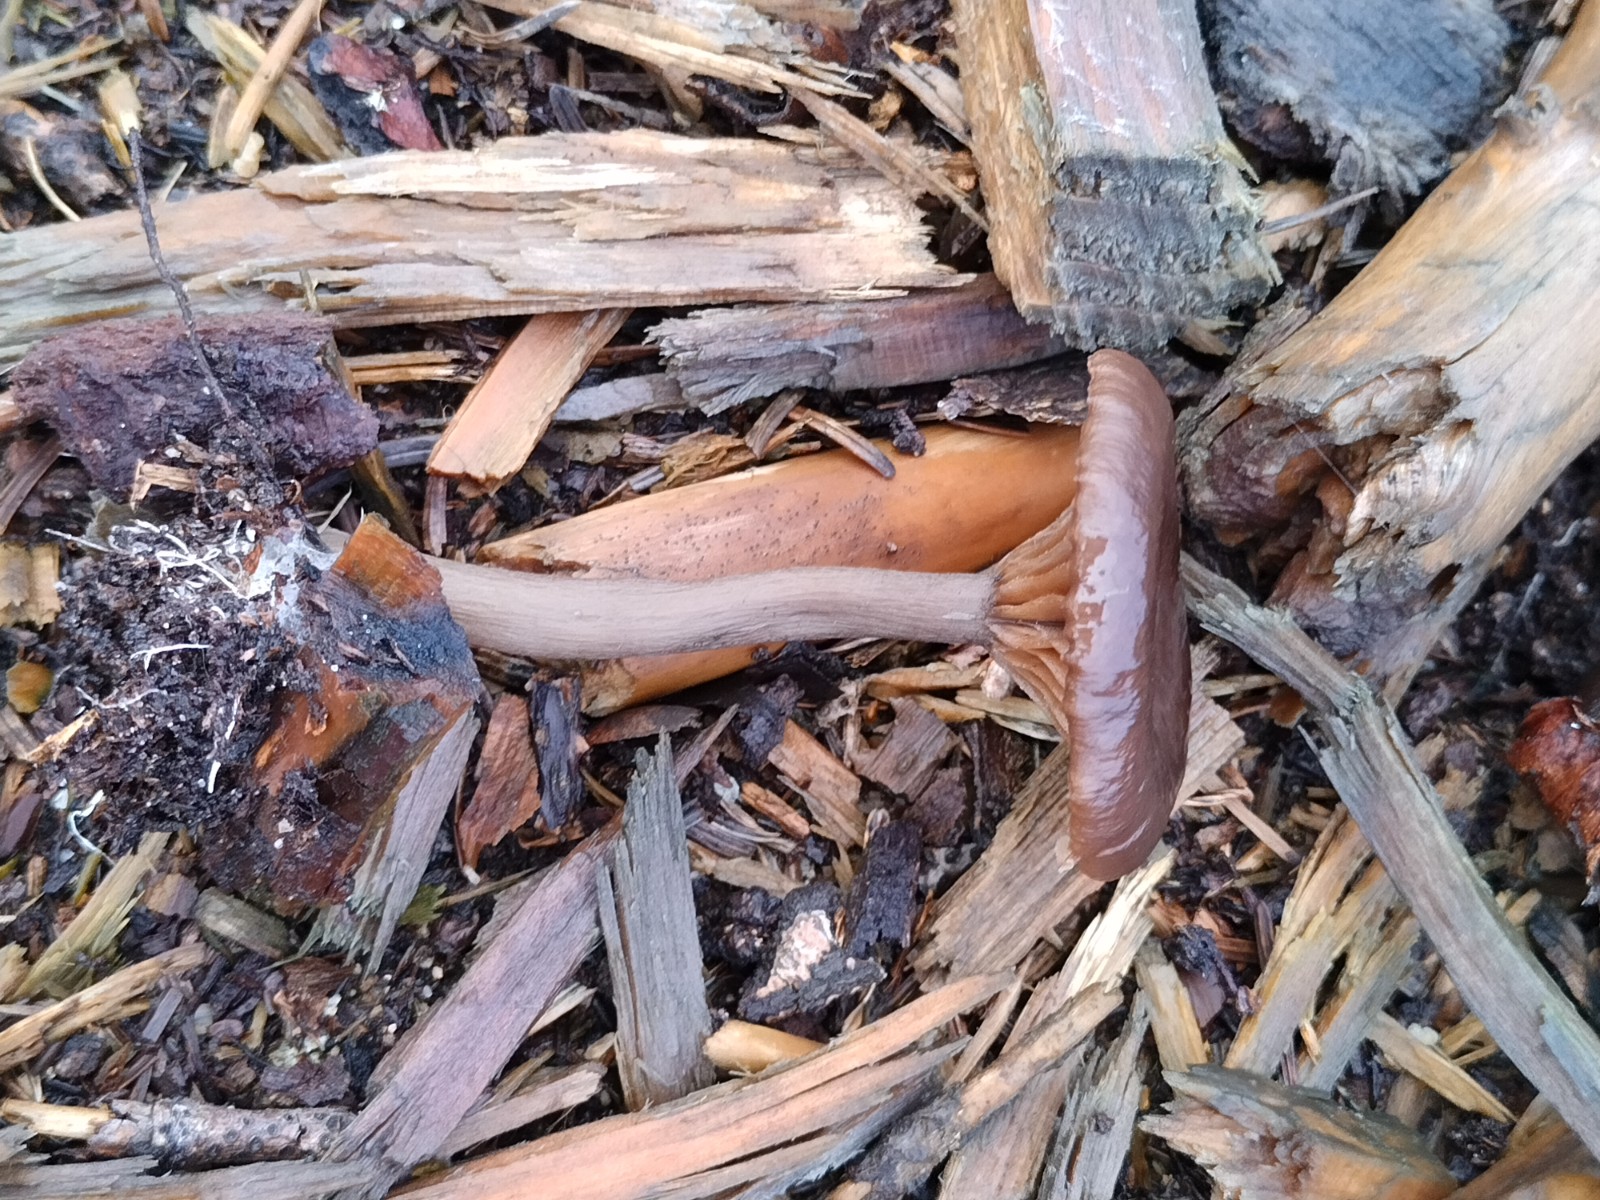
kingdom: Fungi
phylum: Basidiomycota
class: Agaricomycetes
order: Agaricales
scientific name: Agaricales
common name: champignonordenen
